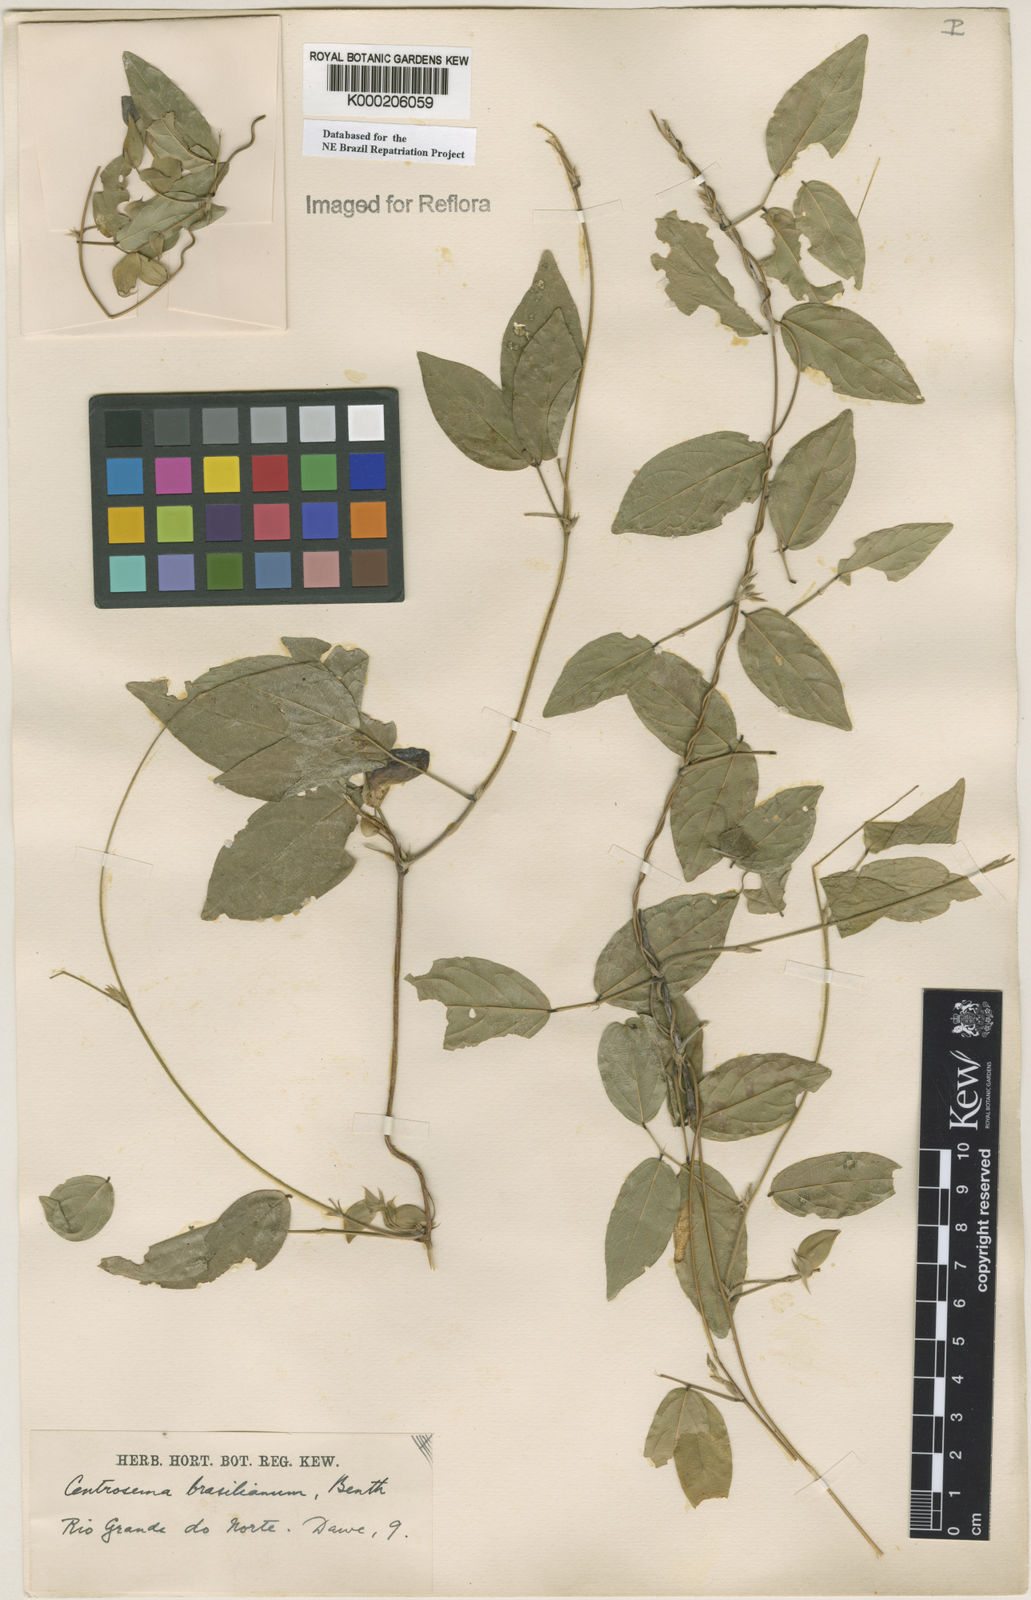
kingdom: Plantae
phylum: Tracheophyta
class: Magnoliopsida
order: Fabales
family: Fabaceae
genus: Centrosema
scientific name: Centrosema brasilianum
